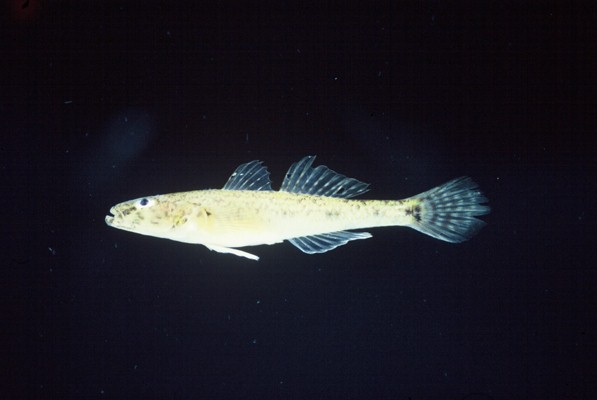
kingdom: Animalia
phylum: Chordata
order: Perciformes
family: Gobiidae
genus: Glossogobius
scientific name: Glossogobius callidus
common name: River goby
